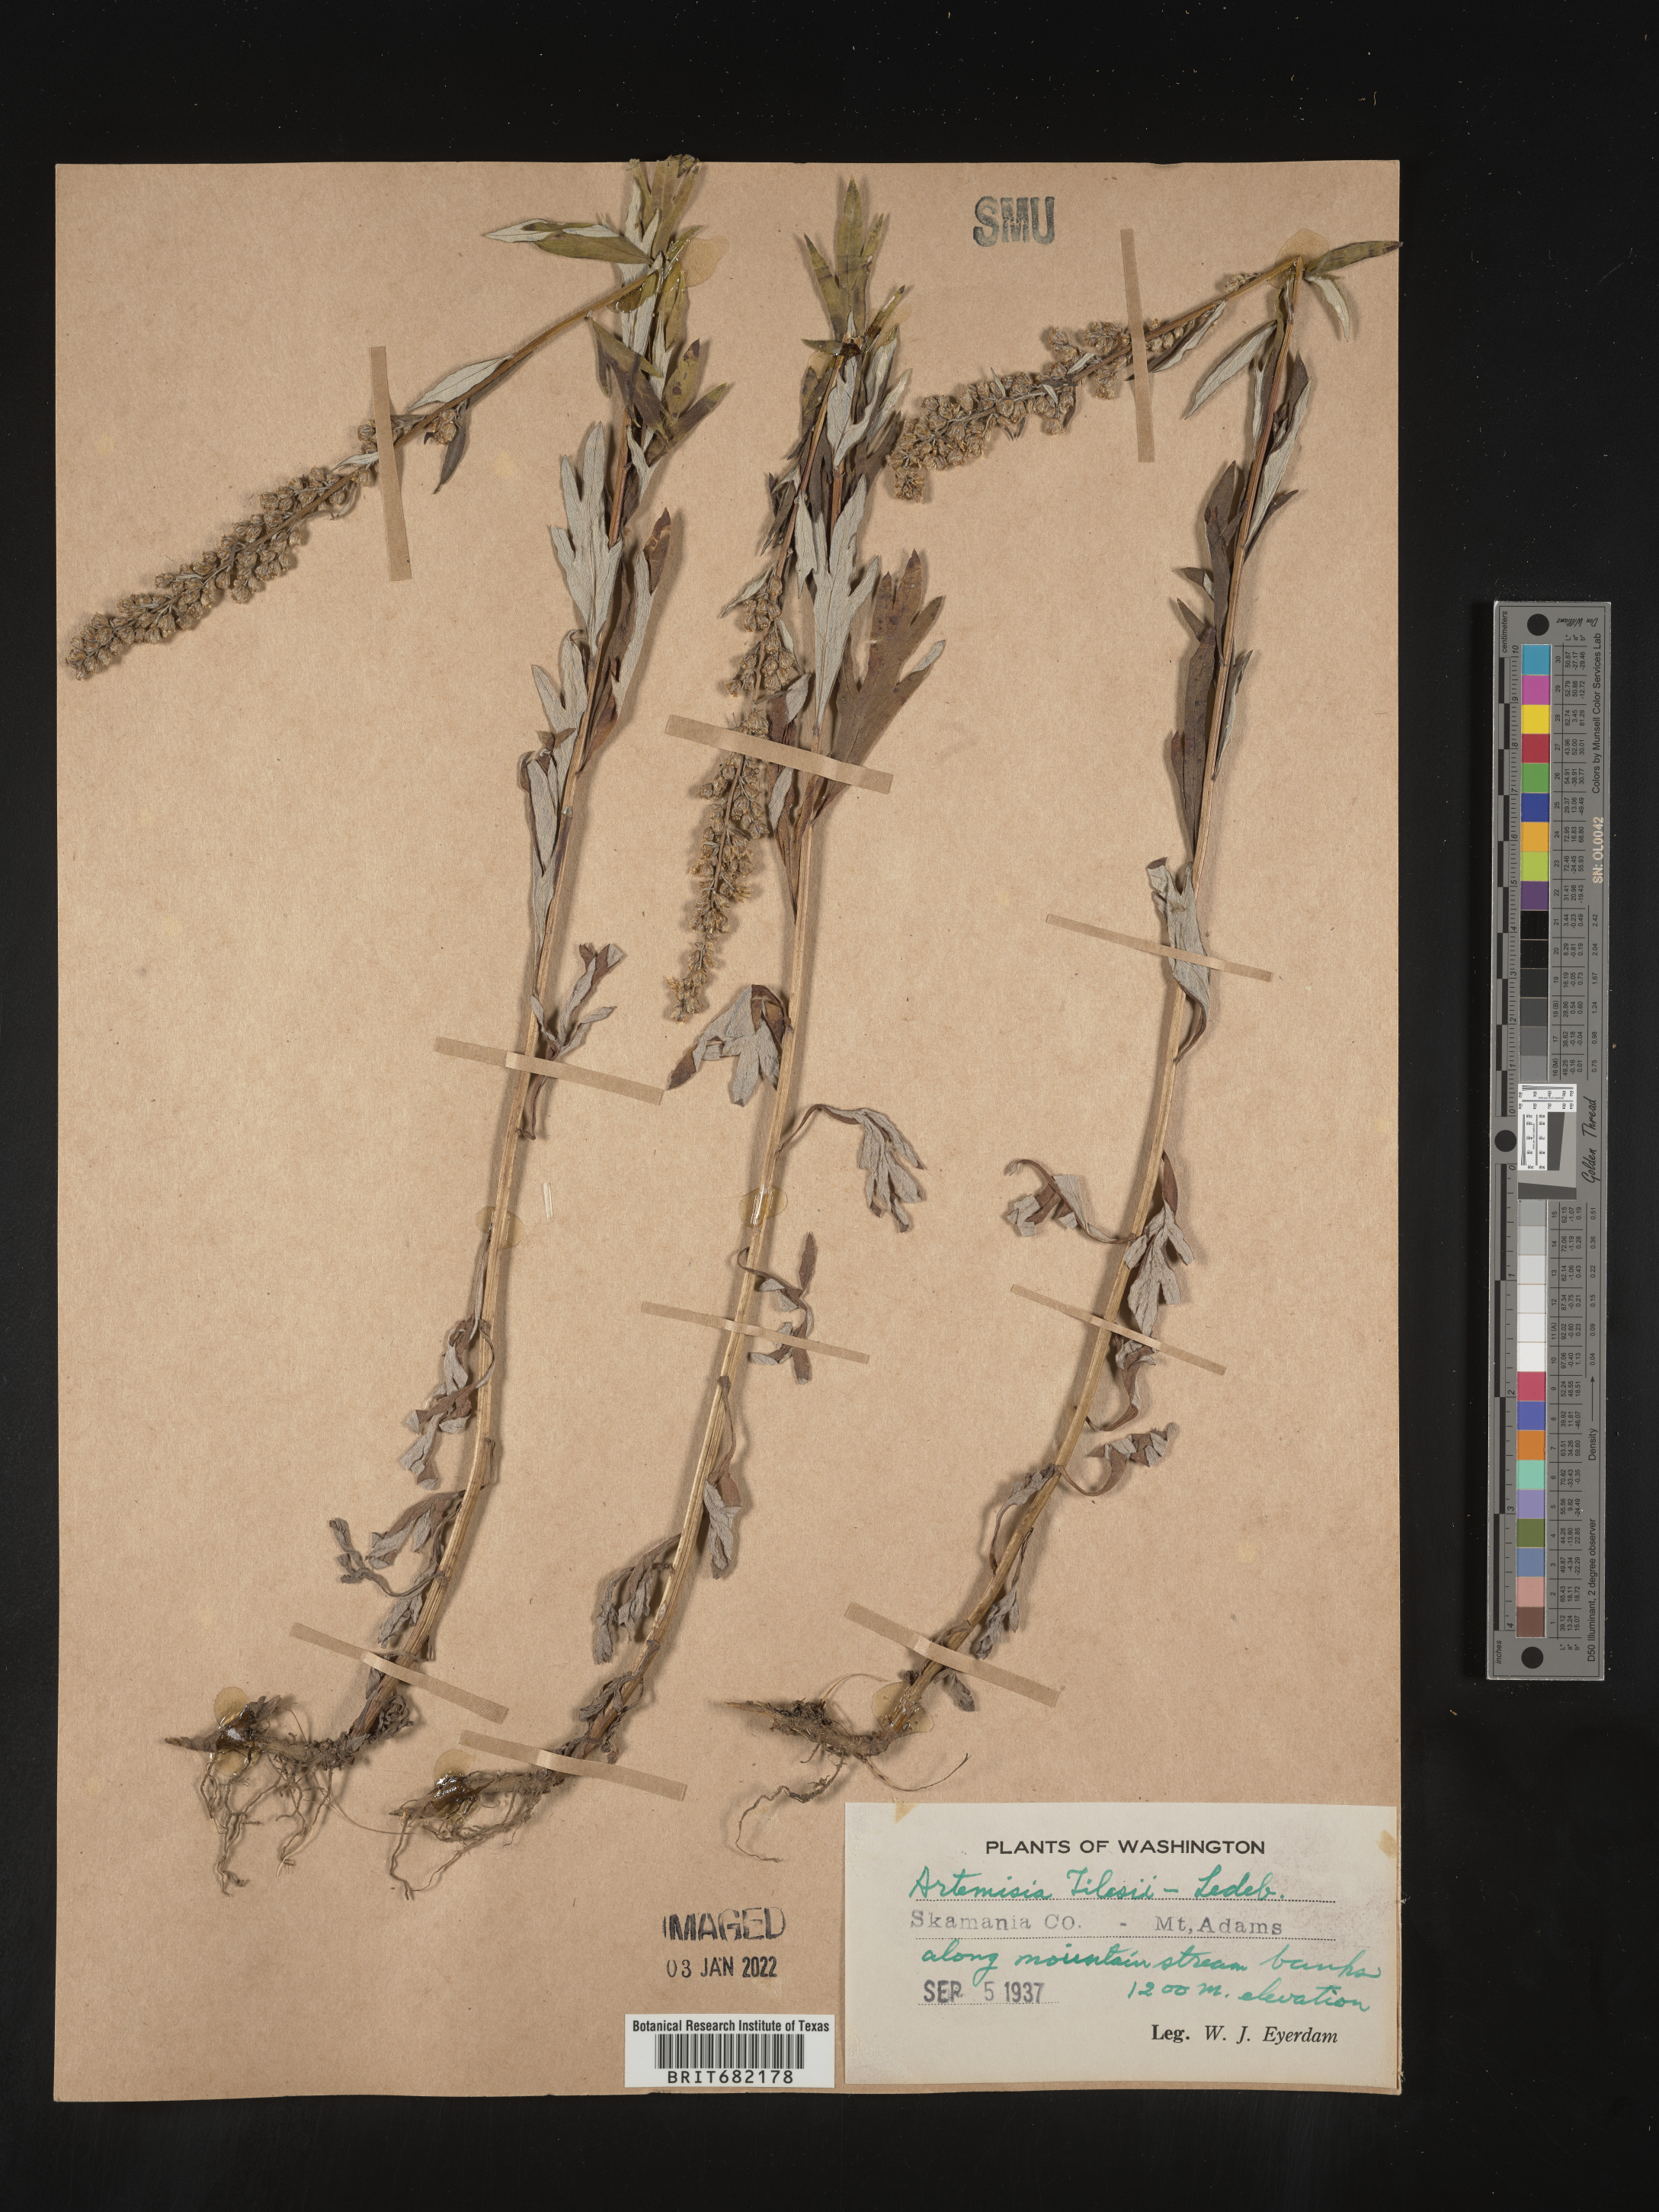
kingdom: Plantae
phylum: Tracheophyta
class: Magnoliopsida
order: Asterales
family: Asteraceae
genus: Artemisia
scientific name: Artemisia tilesii
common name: Aleutian mugwort
